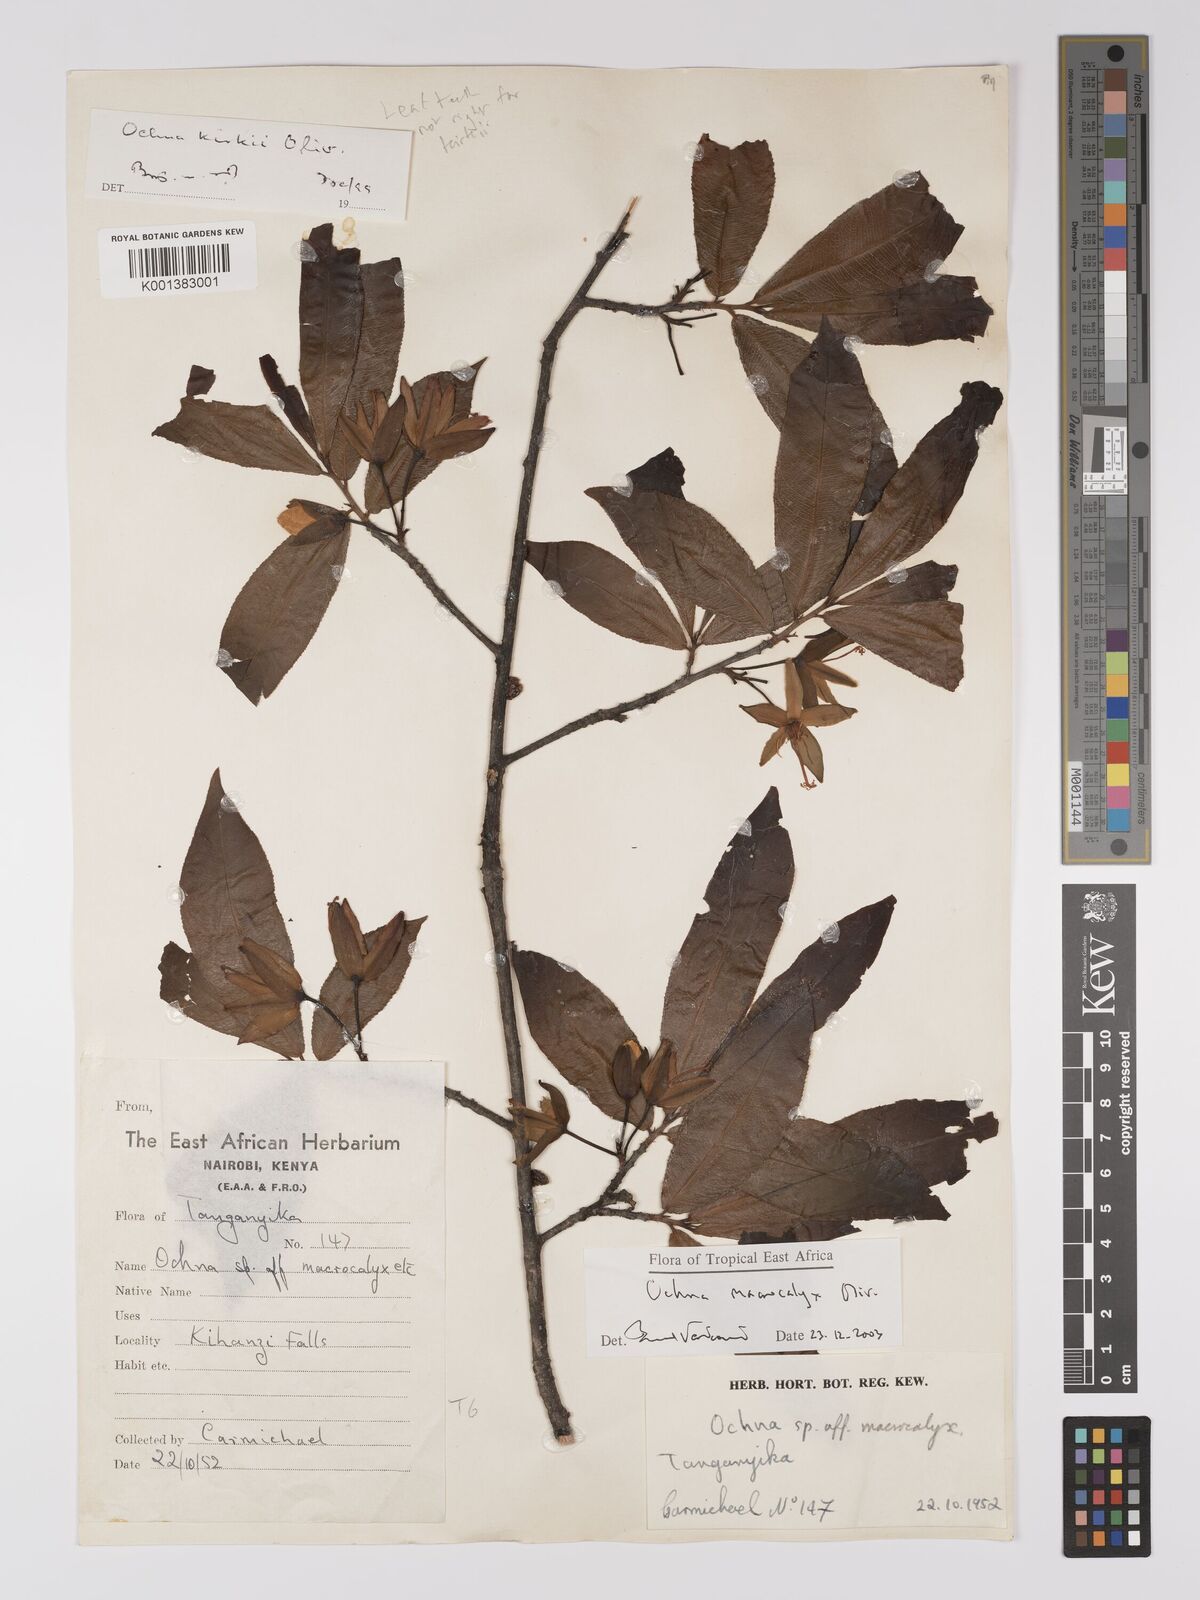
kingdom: Plantae
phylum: Tracheophyta
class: Magnoliopsida
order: Malpighiales
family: Ochnaceae
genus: Ochna
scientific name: Ochna macrocalyx
